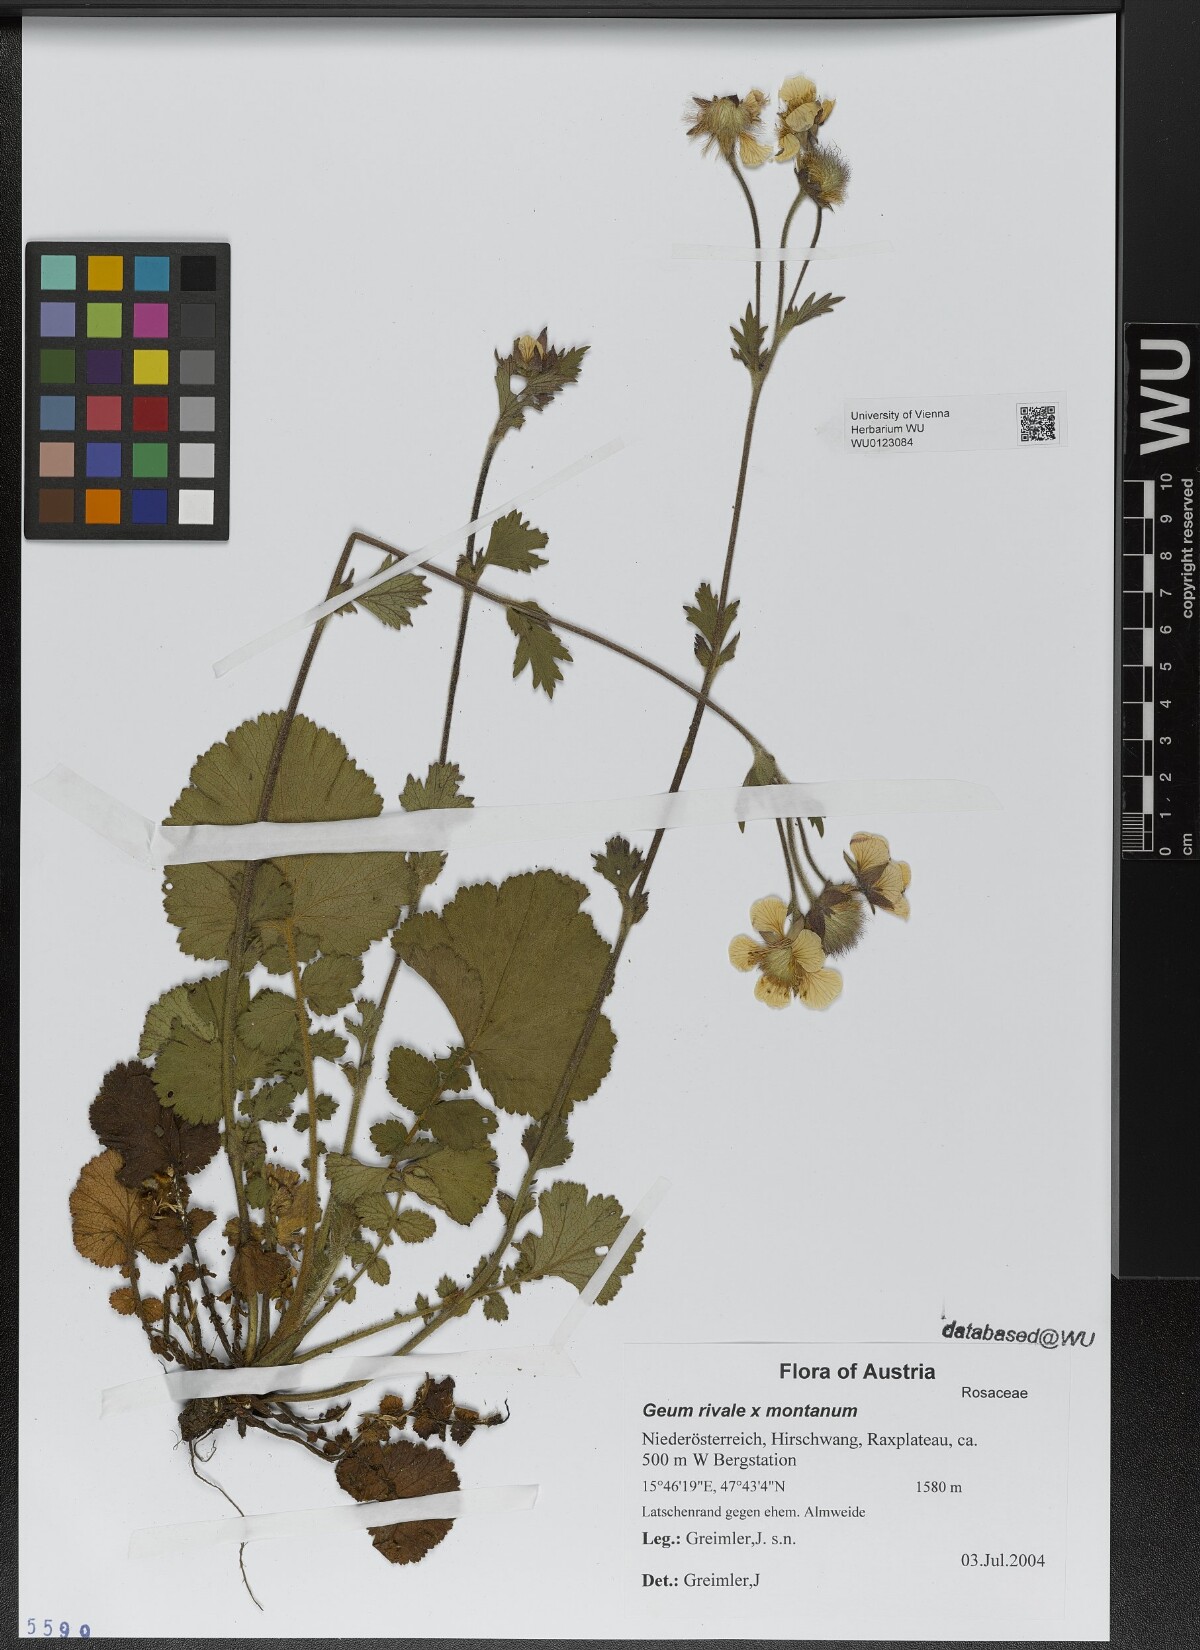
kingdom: Plantae
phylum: Tracheophyta
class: Magnoliopsida
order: Rosales
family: Rosaceae
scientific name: Rosaceae
